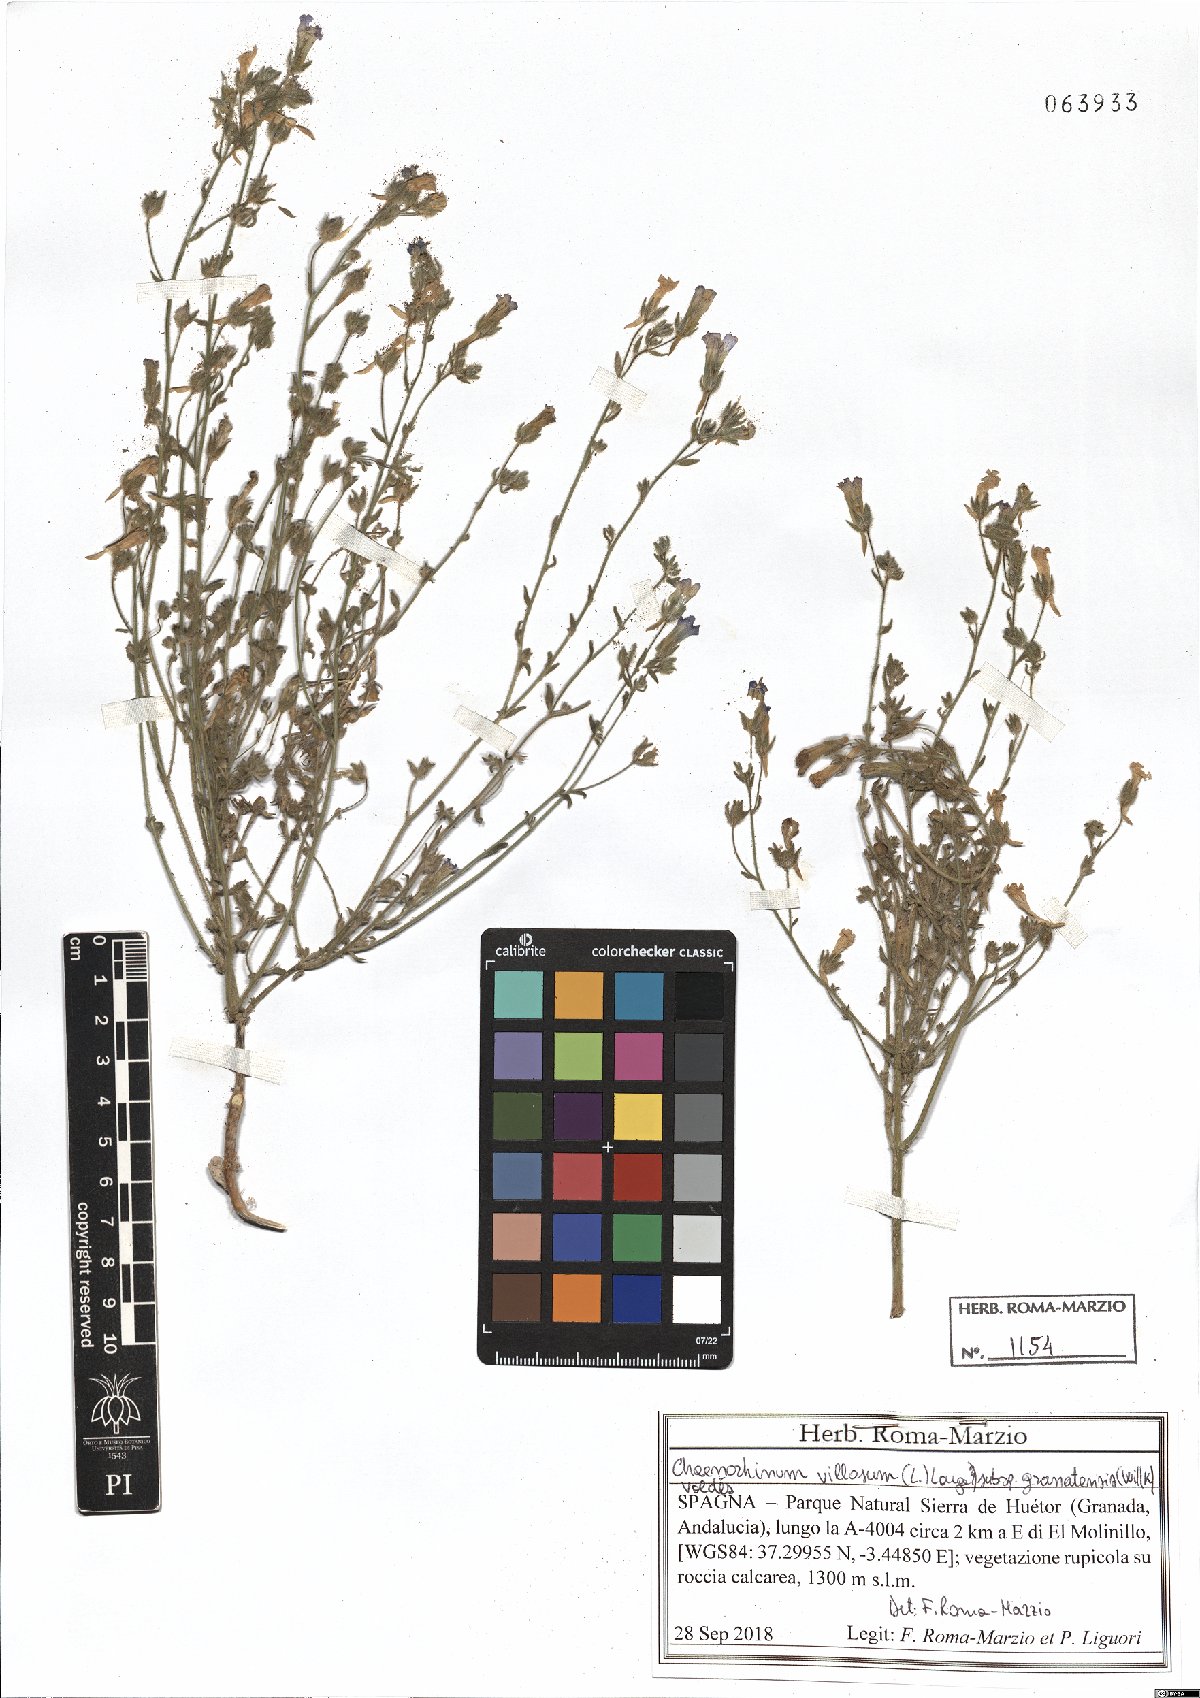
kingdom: Plantae
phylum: Tracheophyta
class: Magnoliopsida
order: Lamiales
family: Plantaginaceae
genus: Chaenorhinum
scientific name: Chaenorhinum villosum
